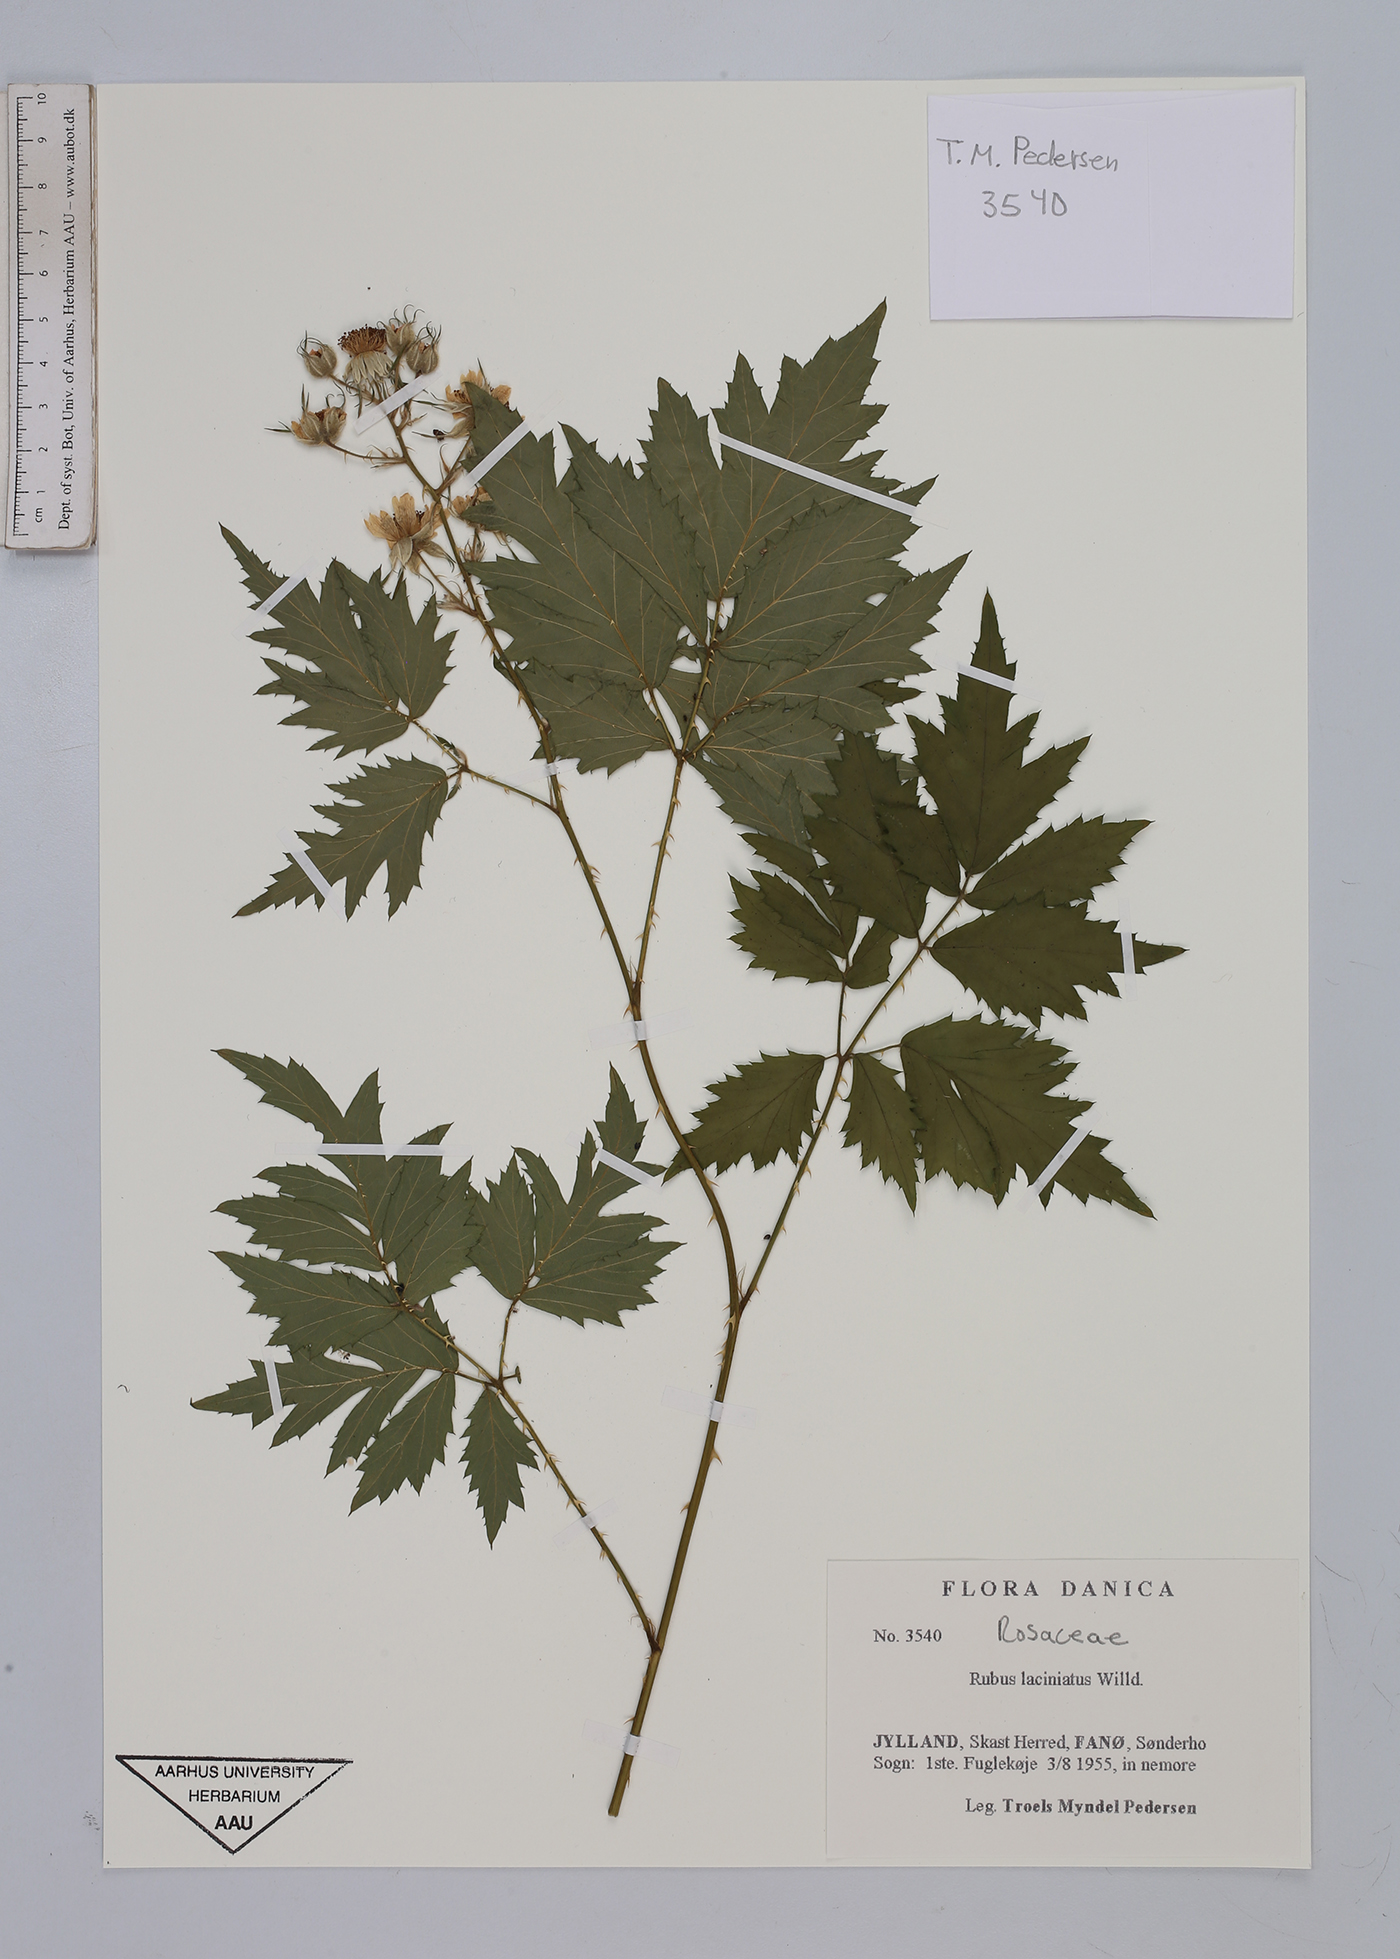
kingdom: Plantae
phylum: Tracheophyta
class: Magnoliopsida
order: Rosales
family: Rosaceae
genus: Rubus
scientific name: Rubus laciniatus
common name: Evergreen blackberry
